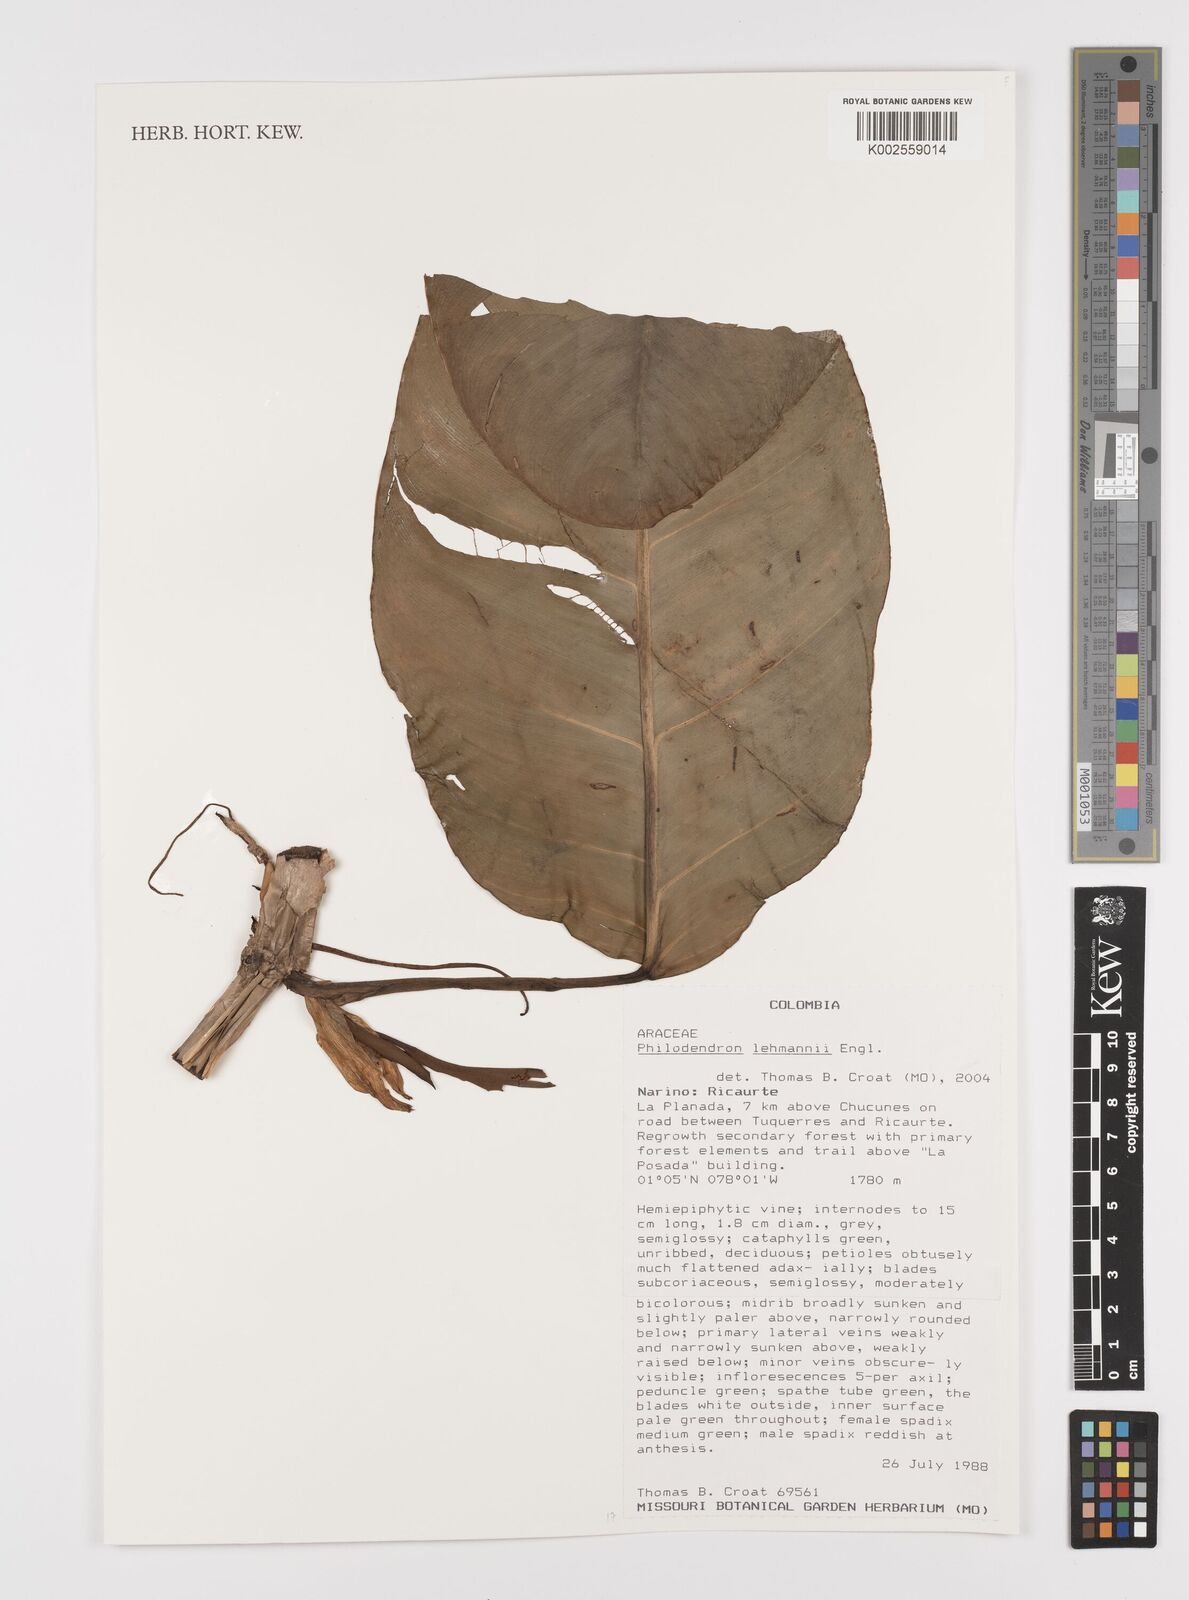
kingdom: Plantae
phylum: Tracheophyta
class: Liliopsida
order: Alismatales
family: Araceae
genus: Philodendron
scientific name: Philodendron lehmannii
